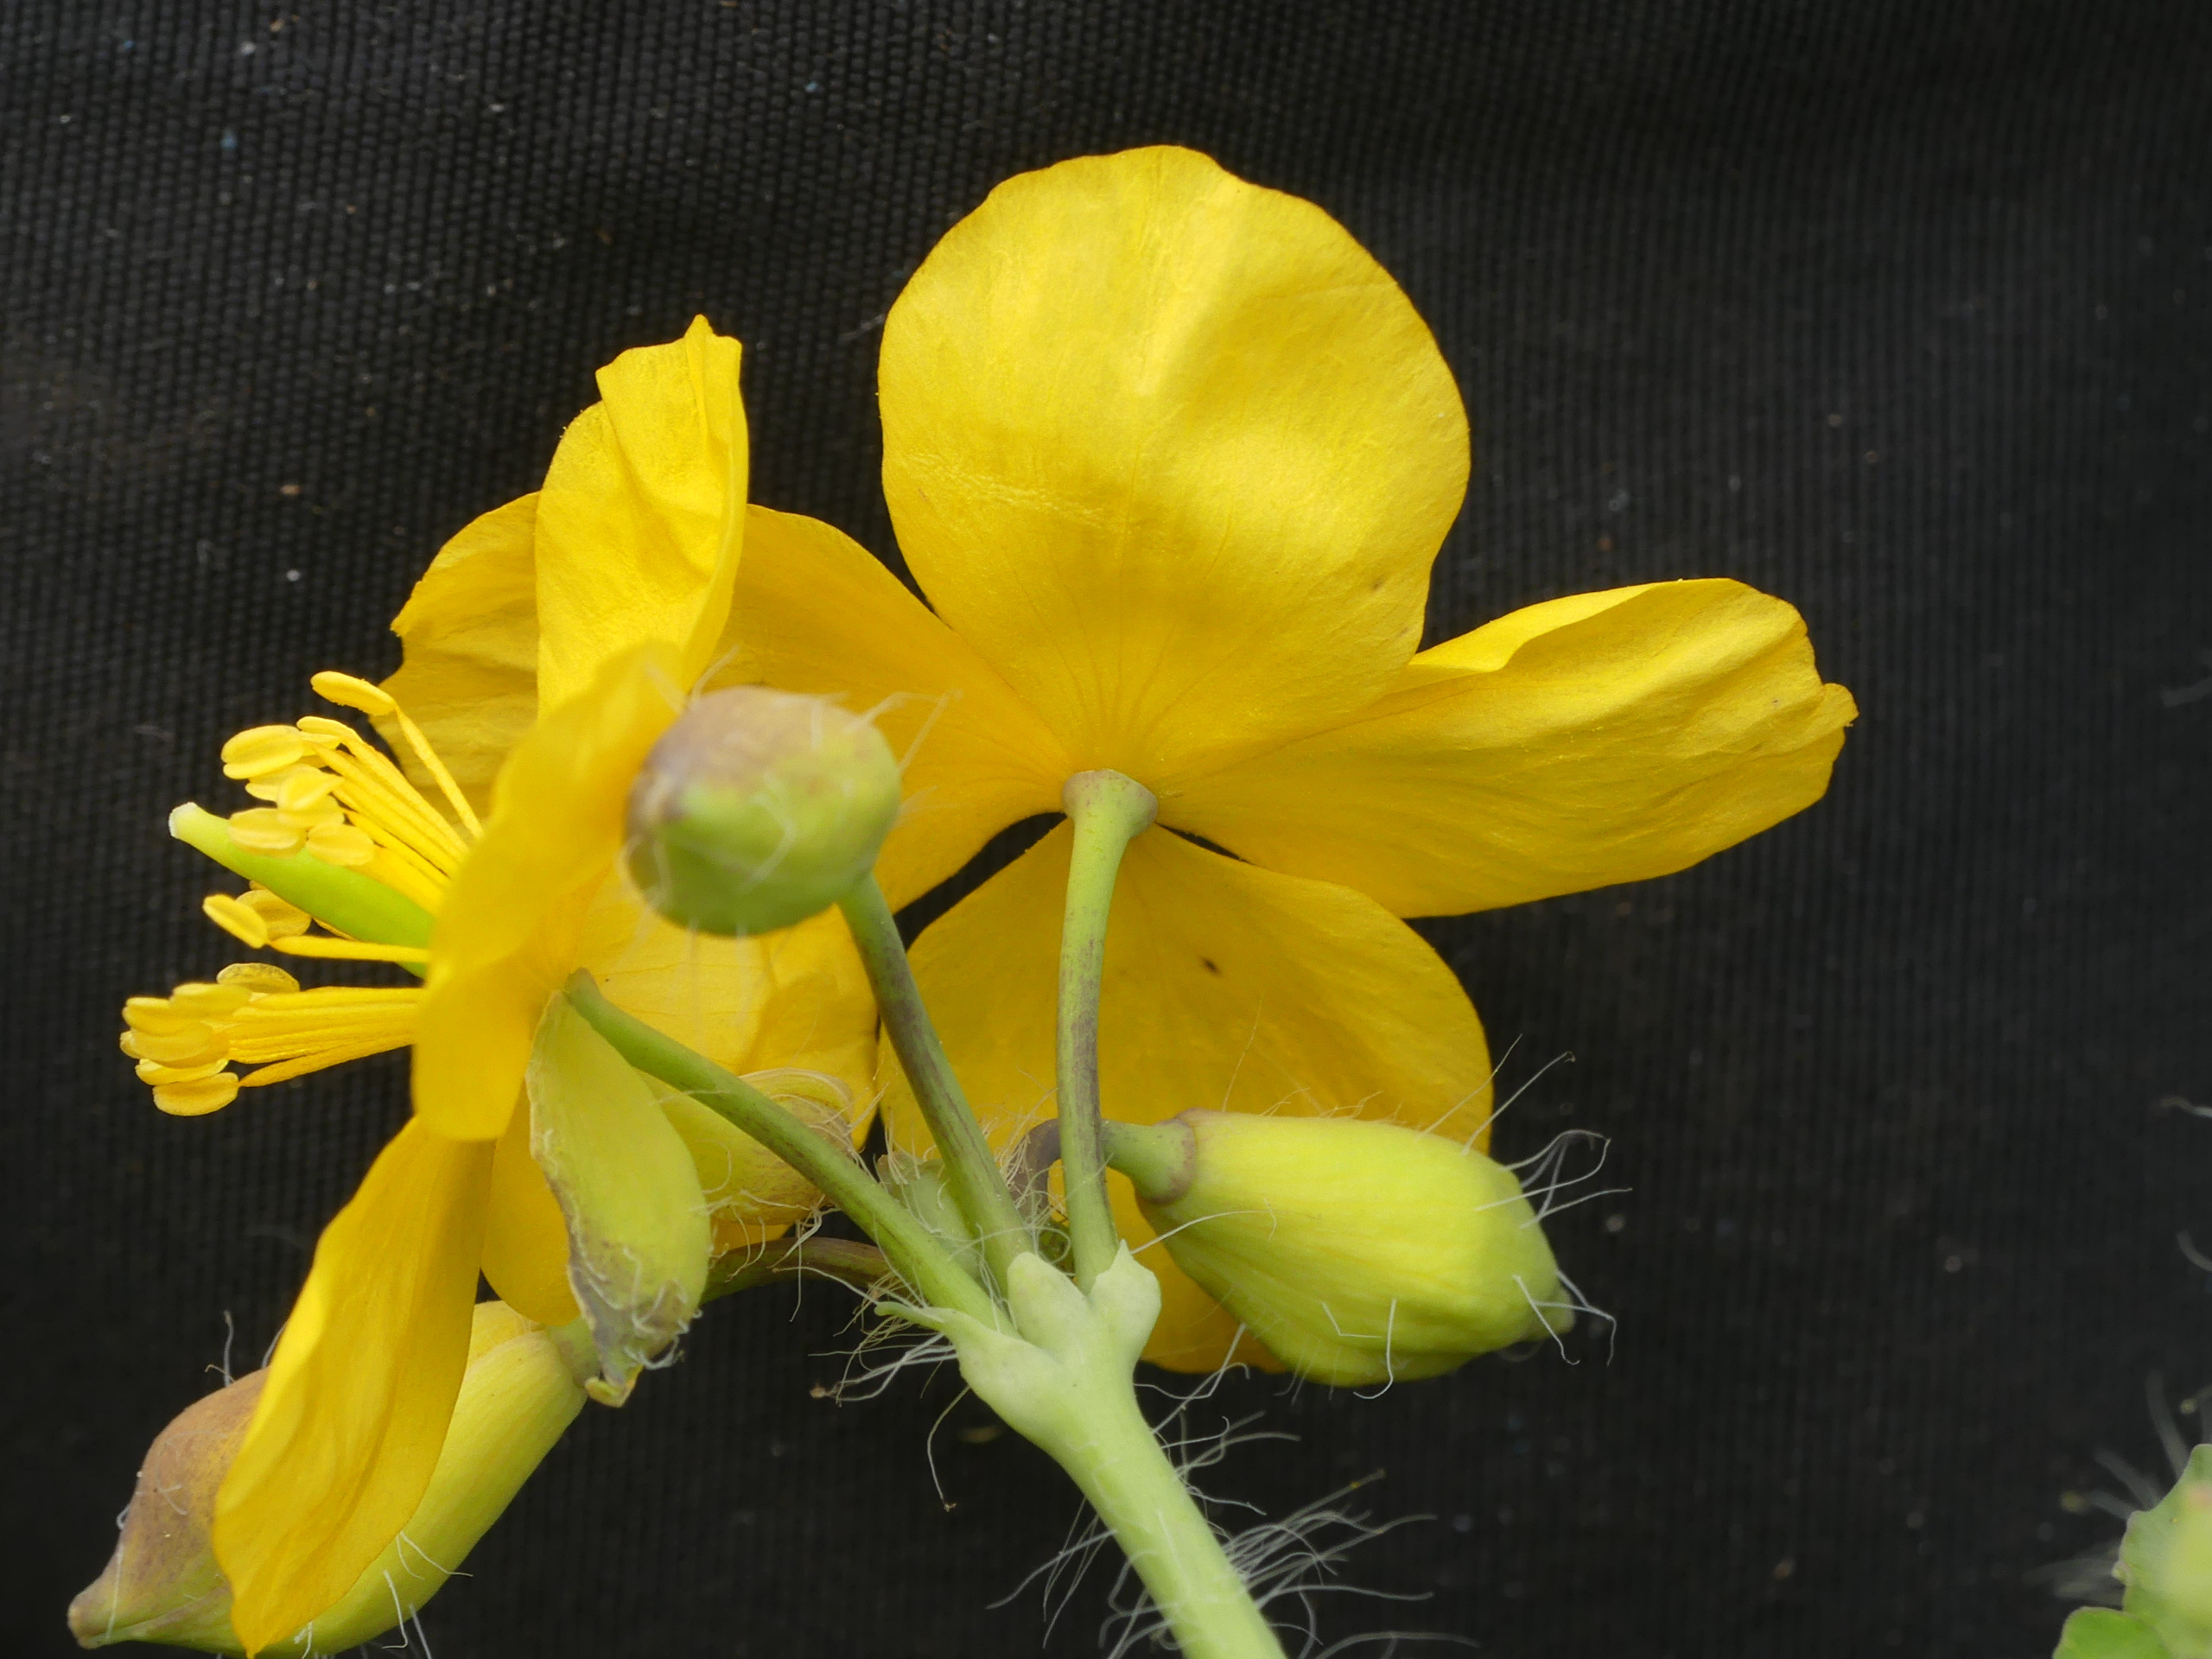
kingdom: Plantae
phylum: Tracheophyta
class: Magnoliopsida
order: Ranunculales
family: Papaveraceae
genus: Chelidonium
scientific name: Chelidonium majus
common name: Svaleurt
